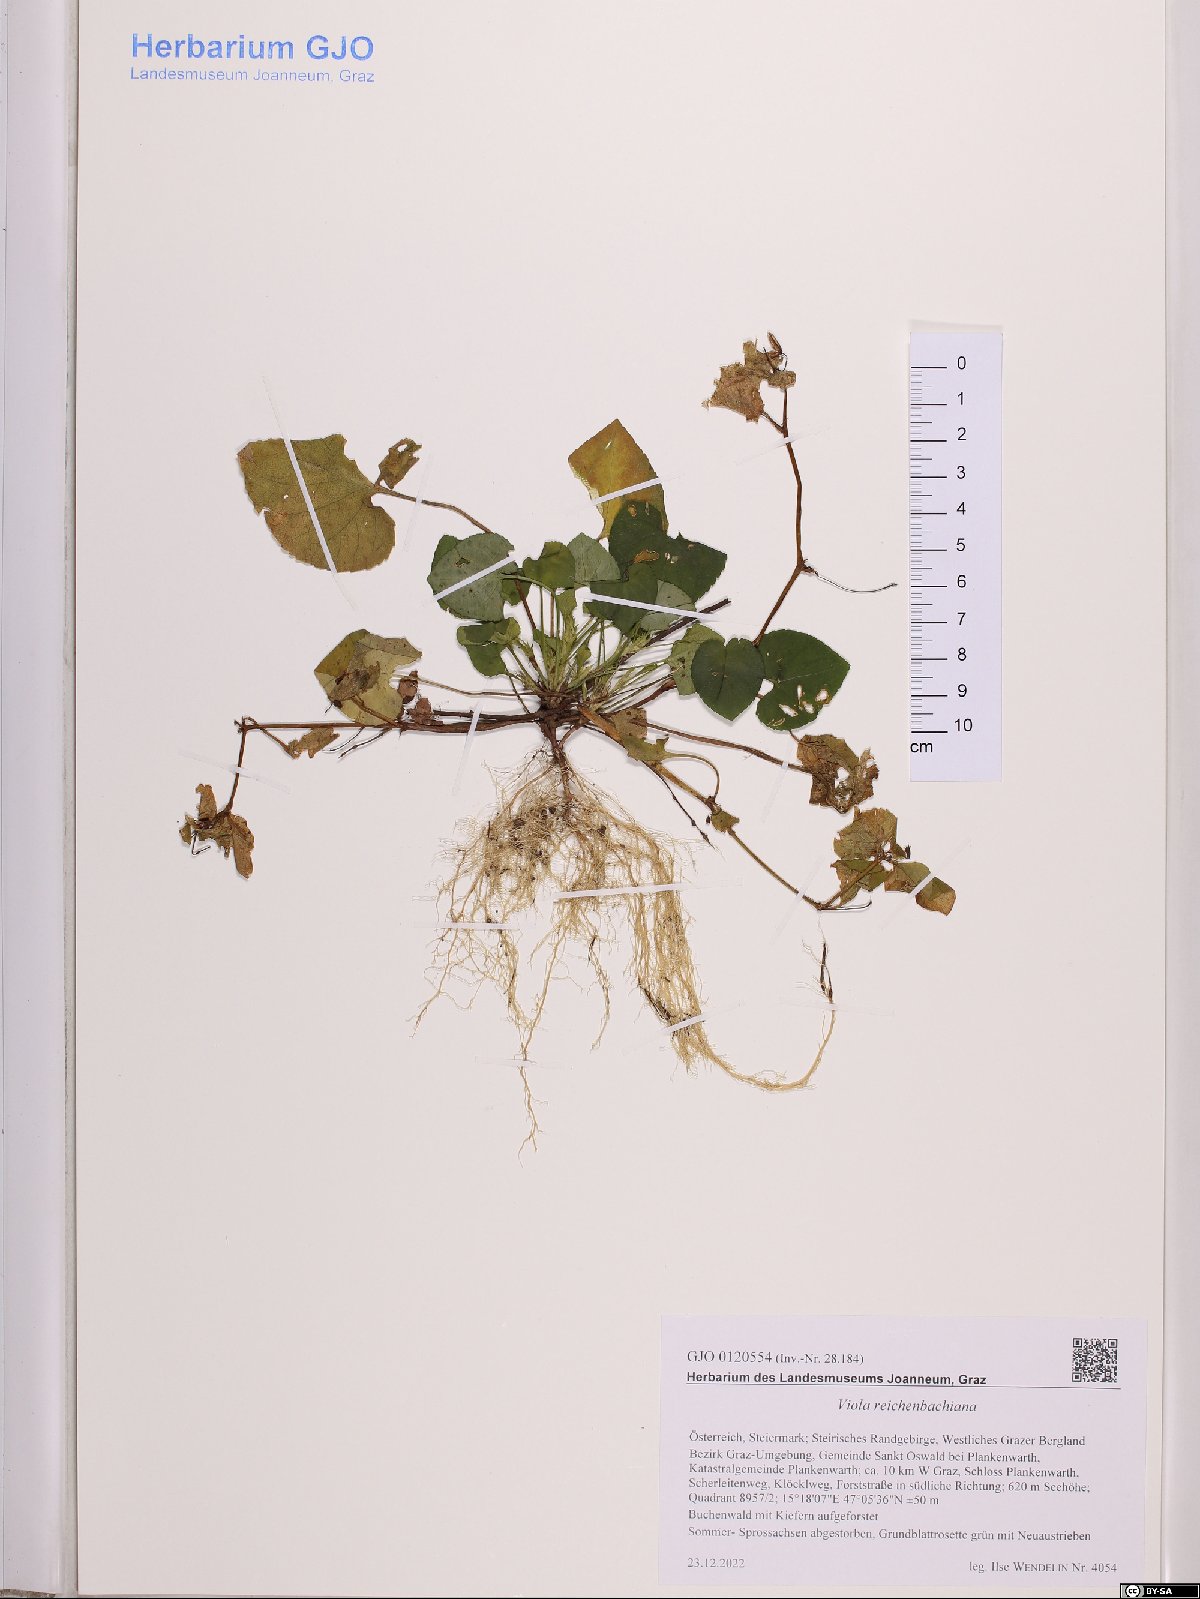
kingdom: Plantae
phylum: Tracheophyta
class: Magnoliopsida
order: Malpighiales
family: Violaceae
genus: Viola
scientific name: Viola reichenbachiana
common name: Early dog-violet
